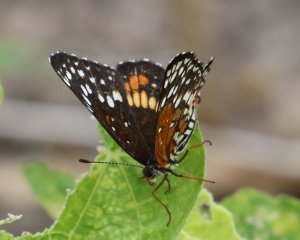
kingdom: Animalia
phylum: Arthropoda
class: Insecta
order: Lepidoptera
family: Nymphalidae
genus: Chlosyne
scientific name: Chlosyne endeis
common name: Banded Patch
